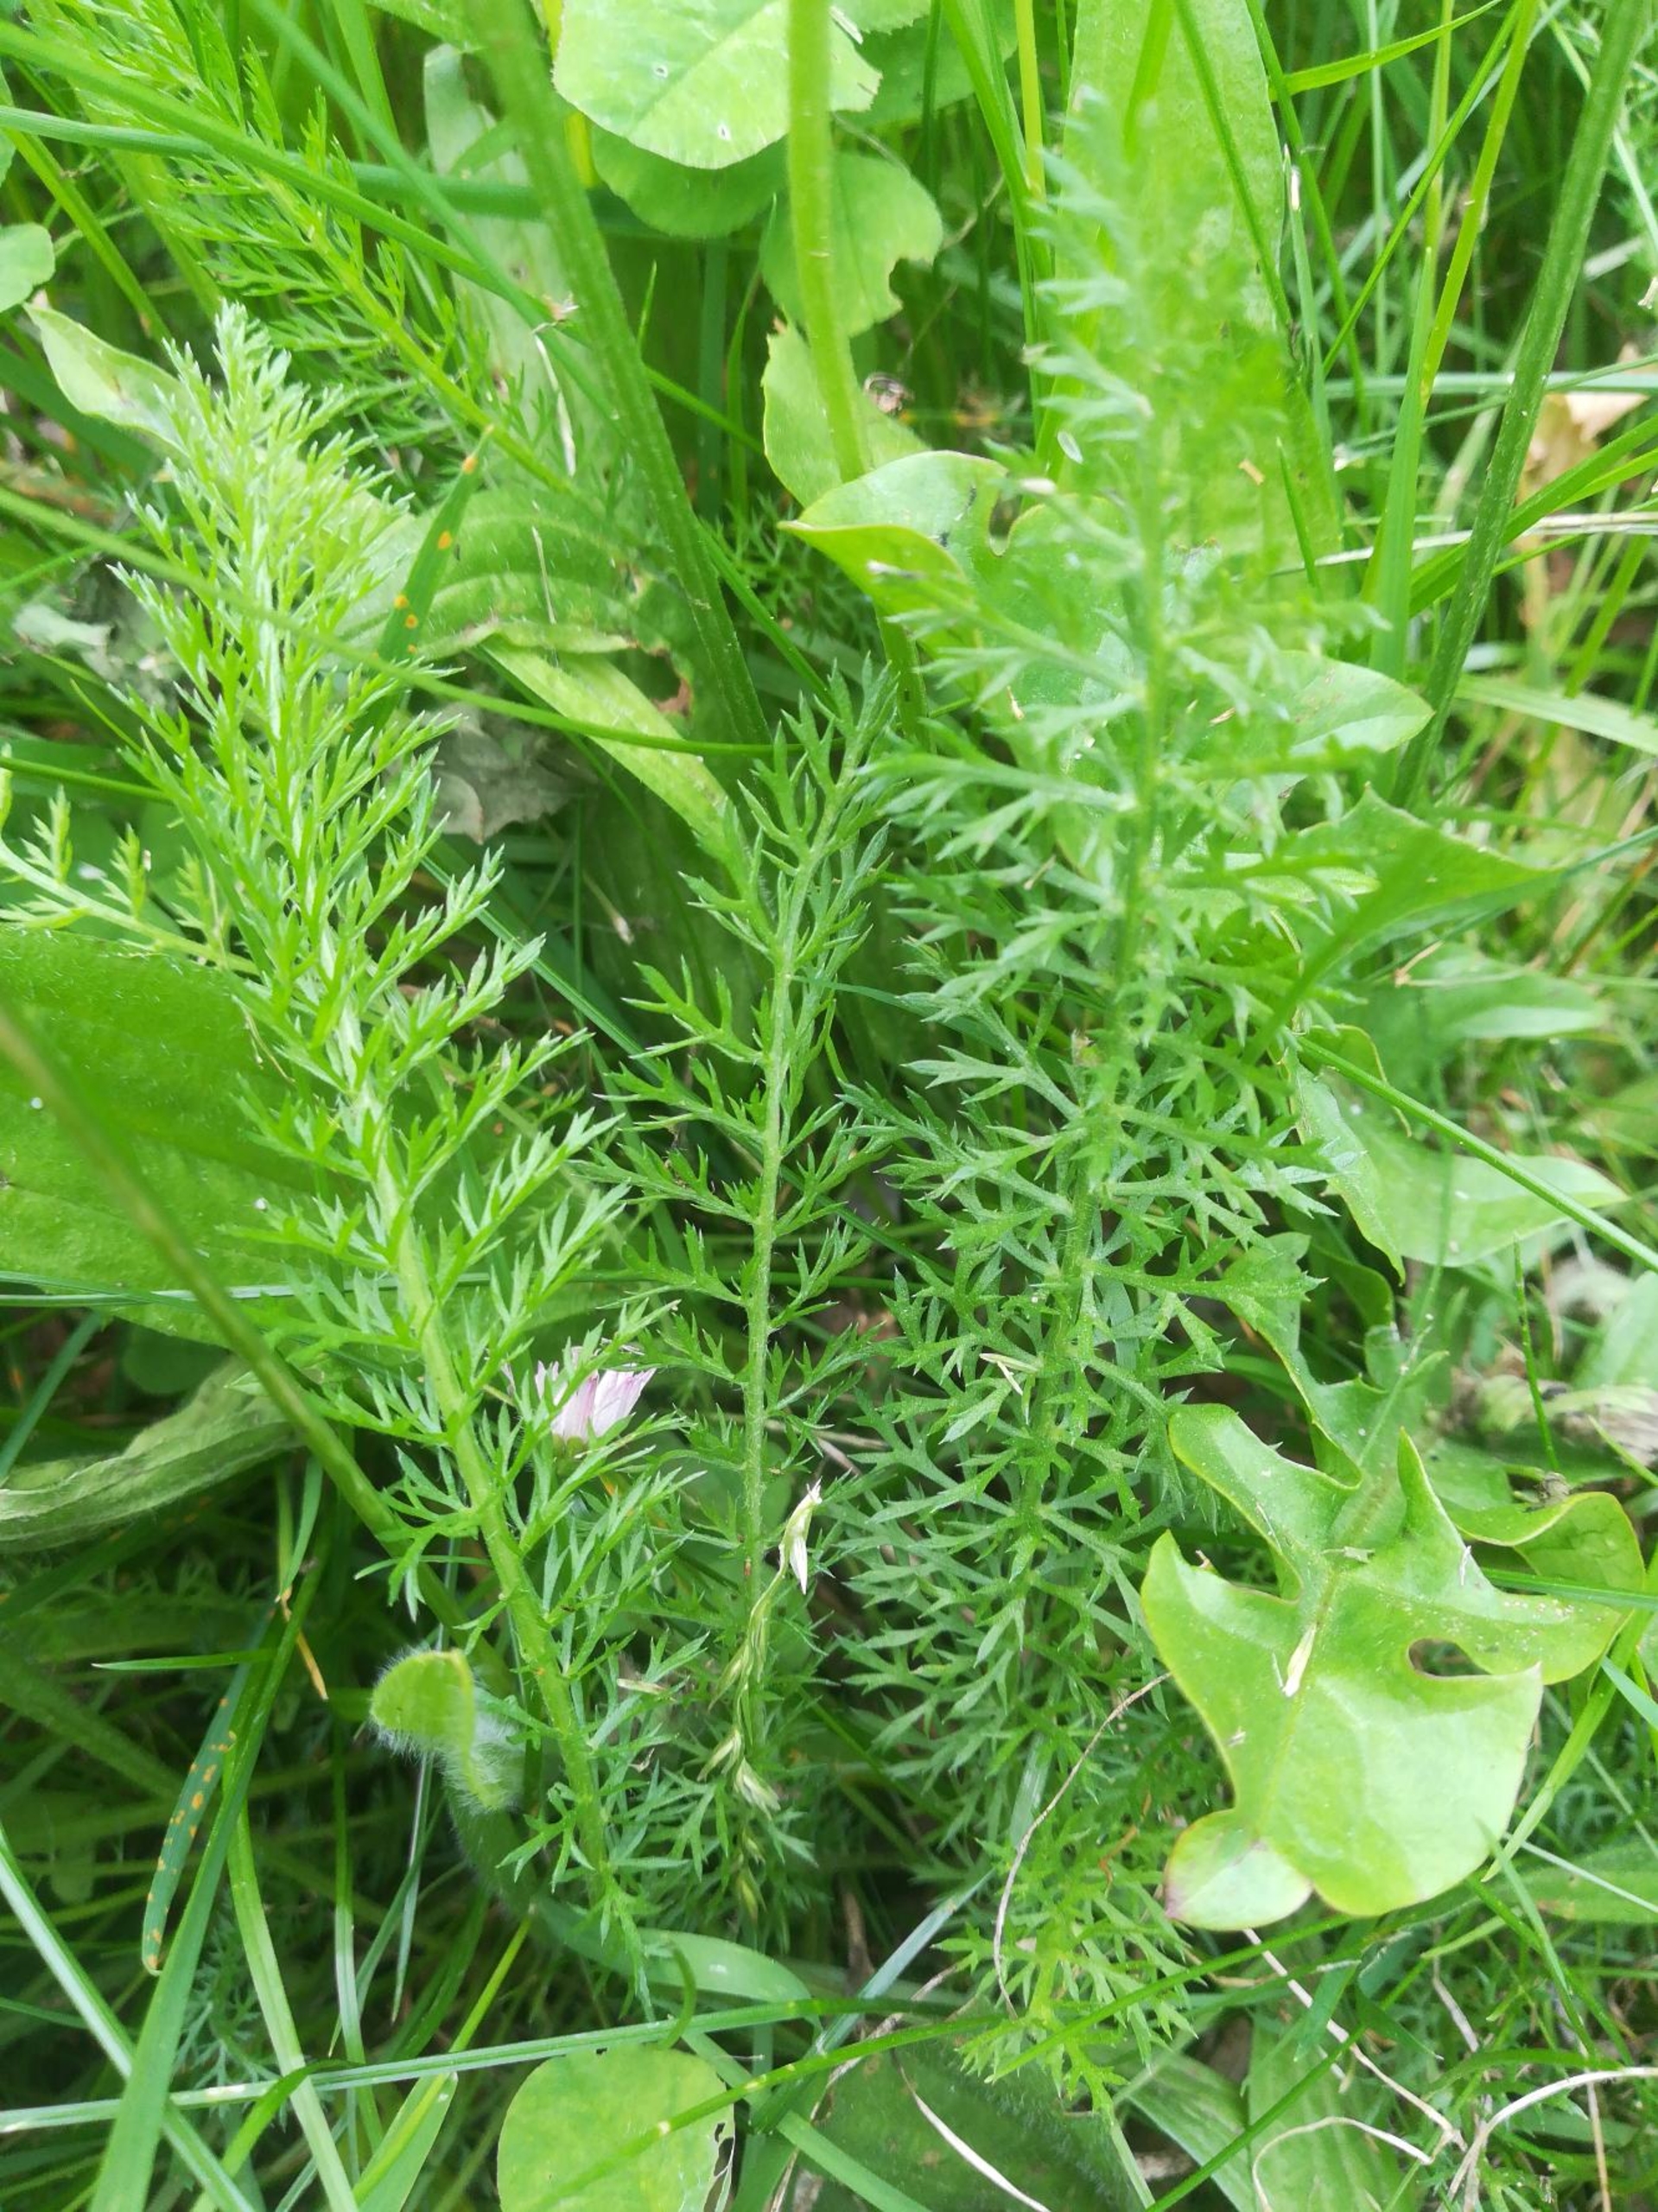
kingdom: Plantae
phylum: Tracheophyta
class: Magnoliopsida
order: Asterales
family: Asteraceae
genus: Achillea
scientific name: Achillea millefolium
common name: Almindelig røllike
